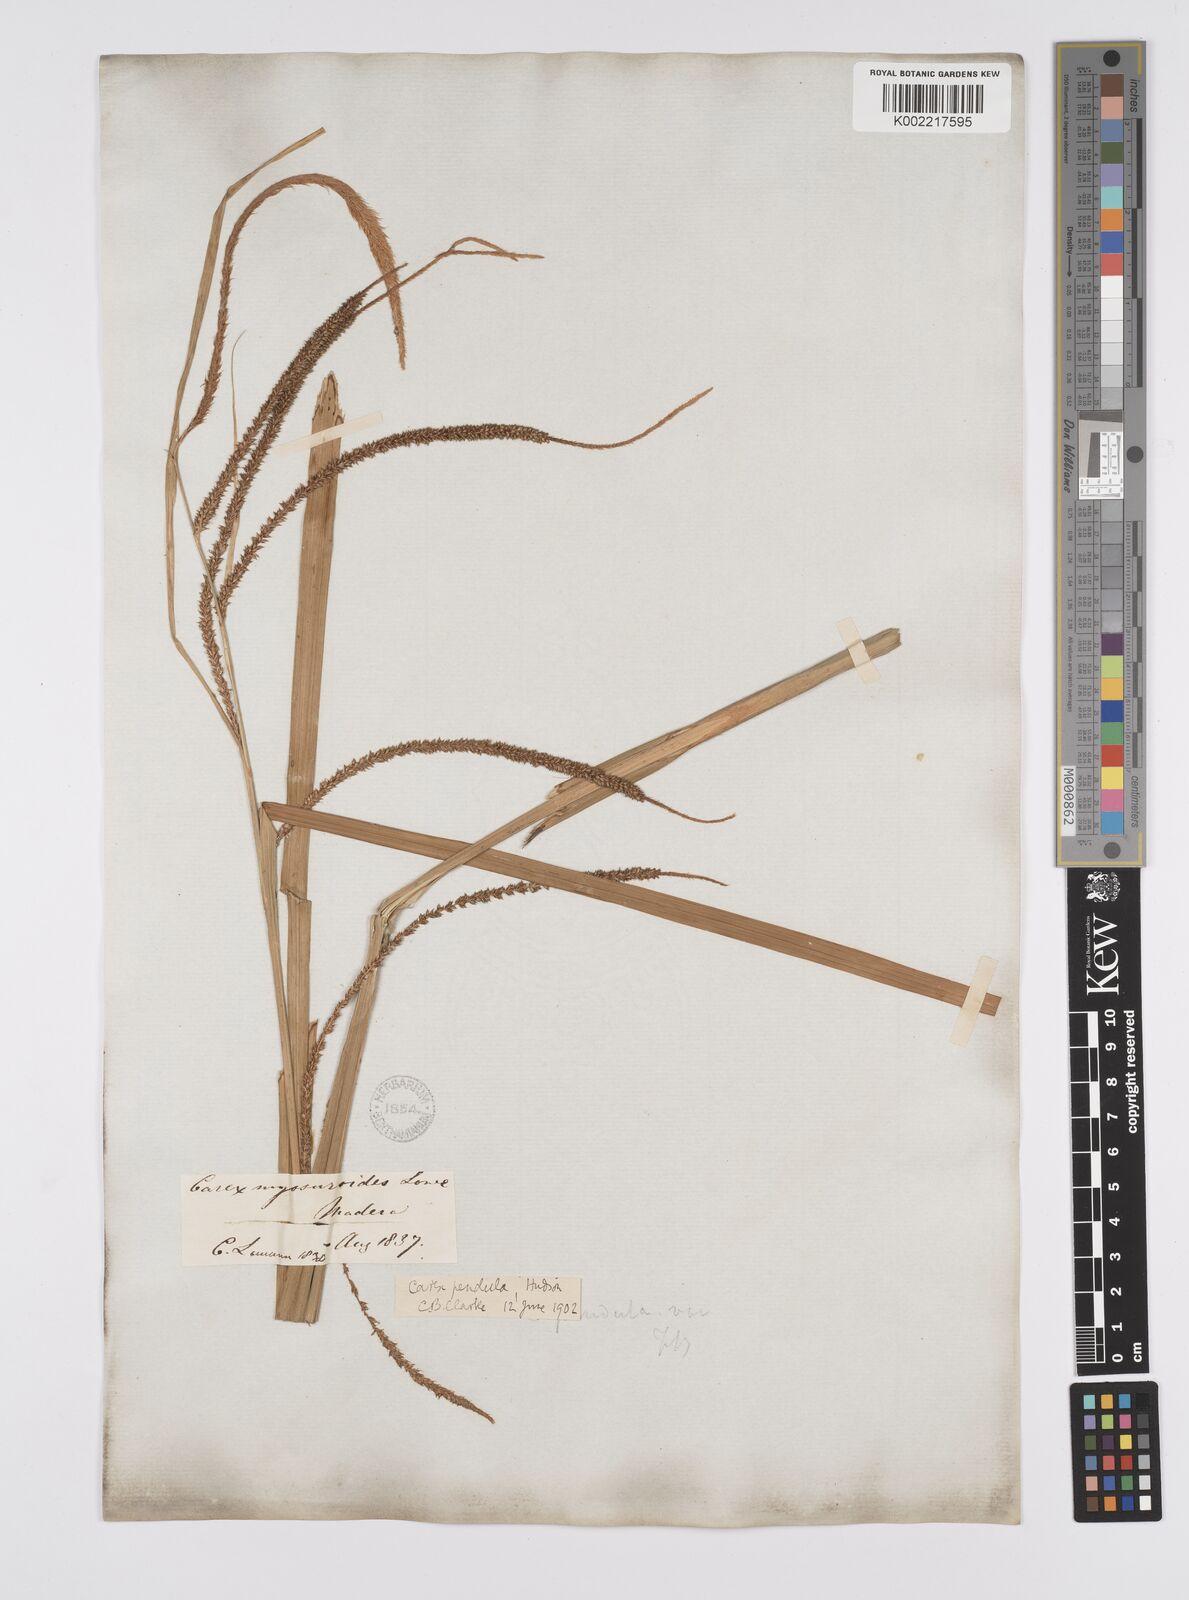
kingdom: Plantae
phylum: Tracheophyta
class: Liliopsida
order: Poales
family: Cyperaceae
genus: Carex
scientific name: Carex pendula
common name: Pendulous sedge
